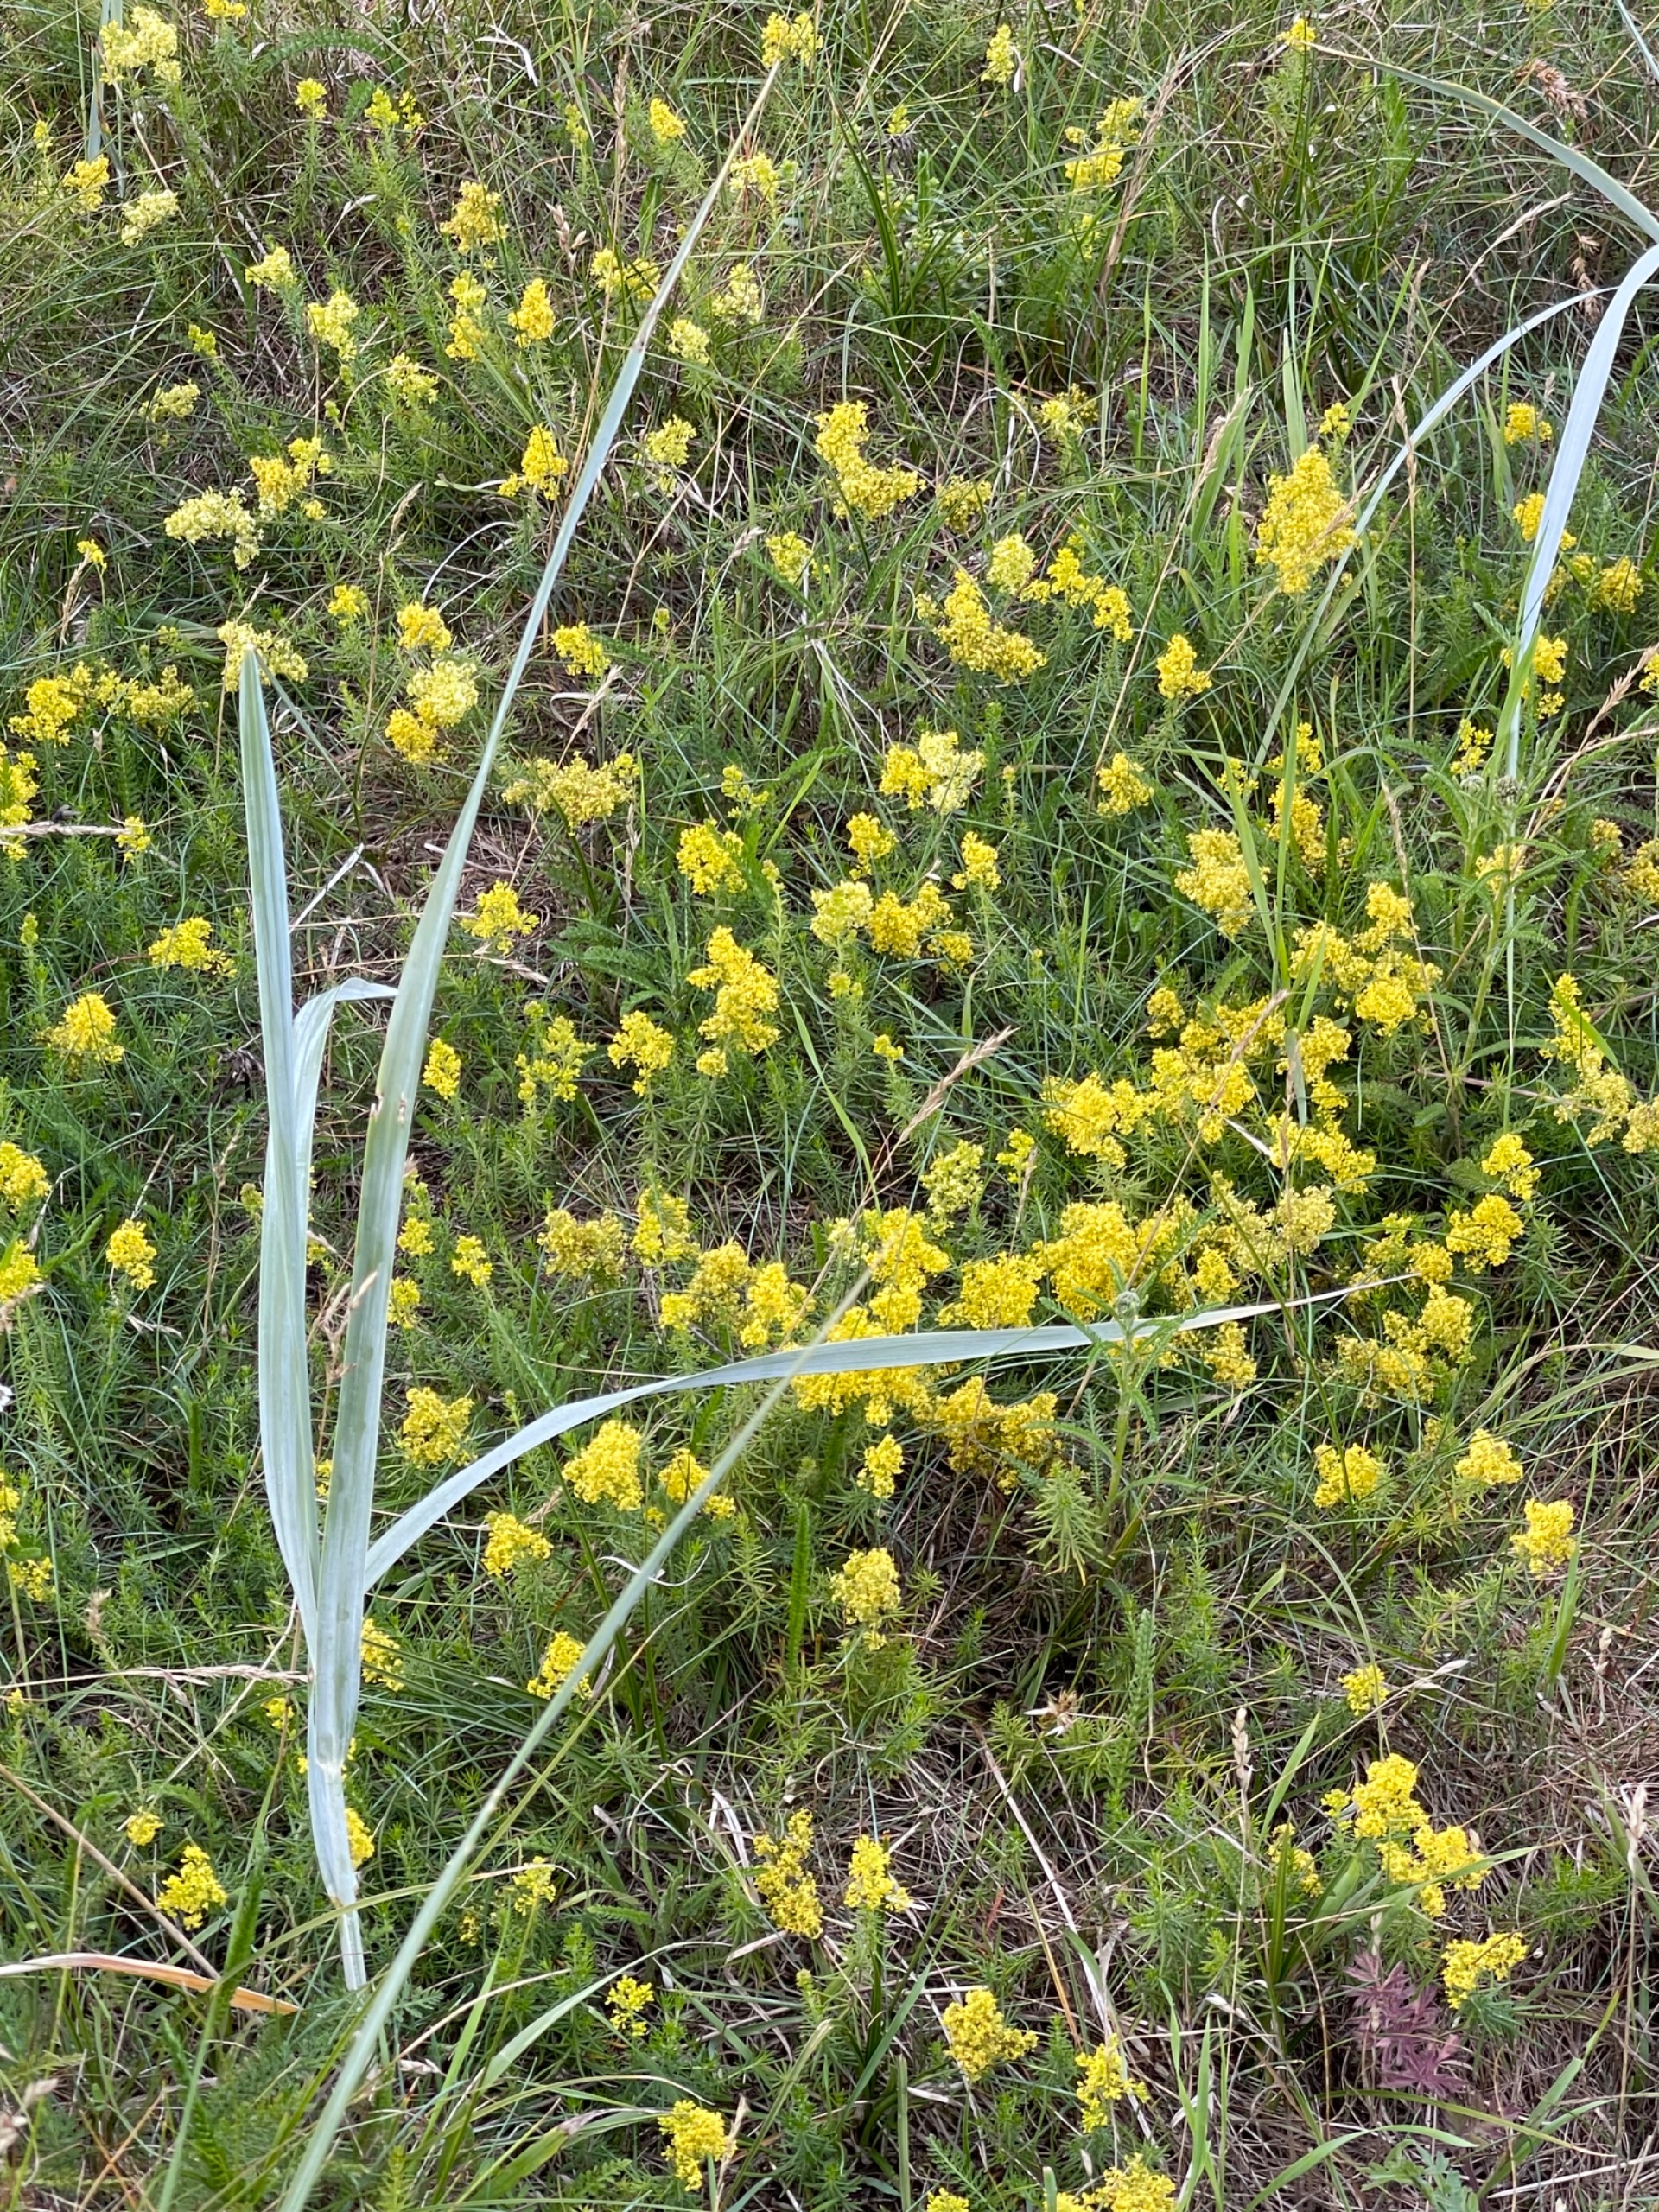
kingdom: Plantae
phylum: Tracheophyta
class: Magnoliopsida
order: Gentianales
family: Rubiaceae
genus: Galium
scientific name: Galium verum
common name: Gul snerre
